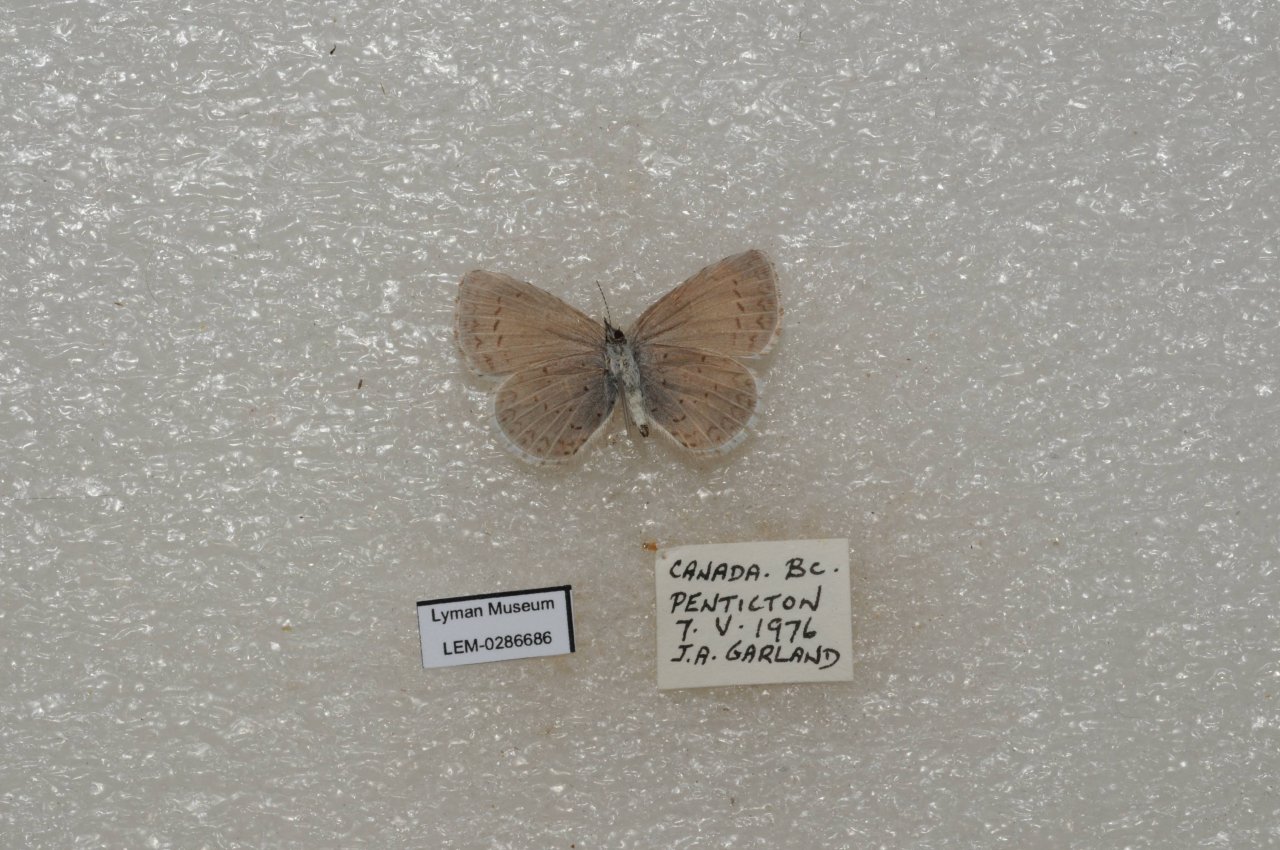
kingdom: Animalia
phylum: Arthropoda
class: Insecta
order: Lepidoptera
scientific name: Lepidoptera
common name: Butterflies
